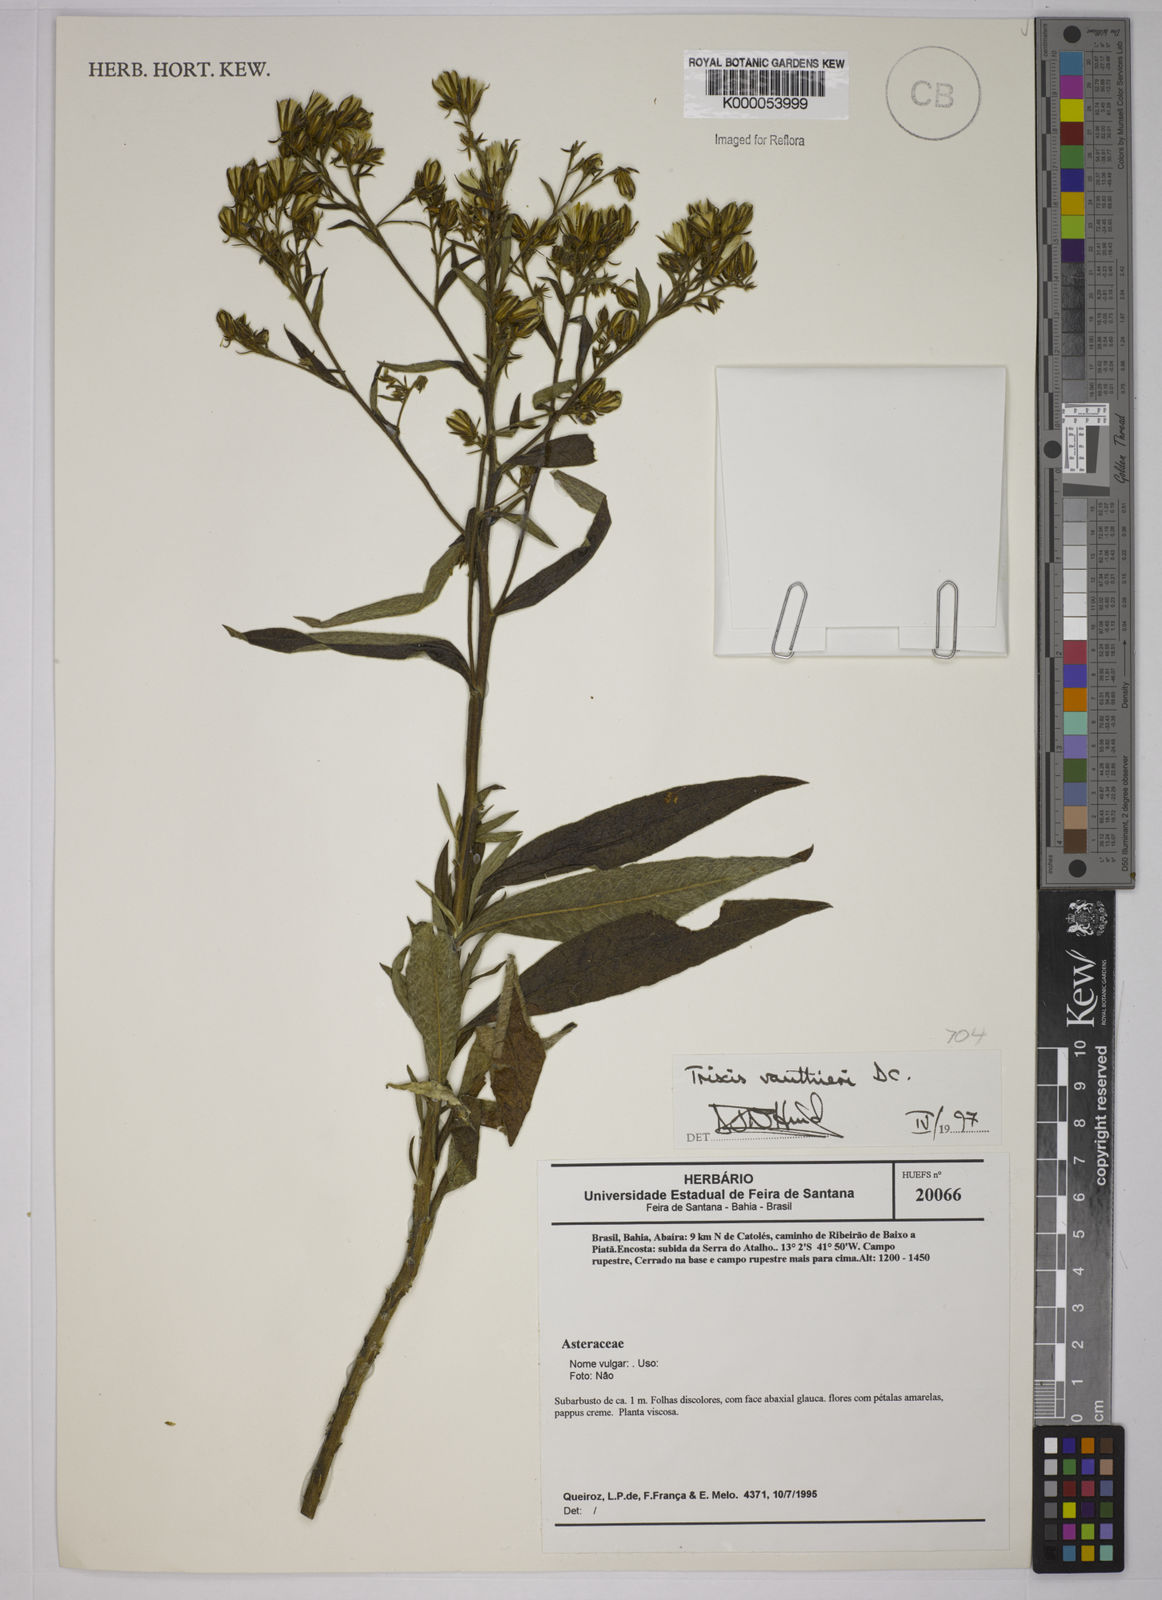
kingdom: Plantae
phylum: Tracheophyta
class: Magnoliopsida
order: Asterales
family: Asteraceae
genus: Trixis
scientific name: Trixis vauthieri
